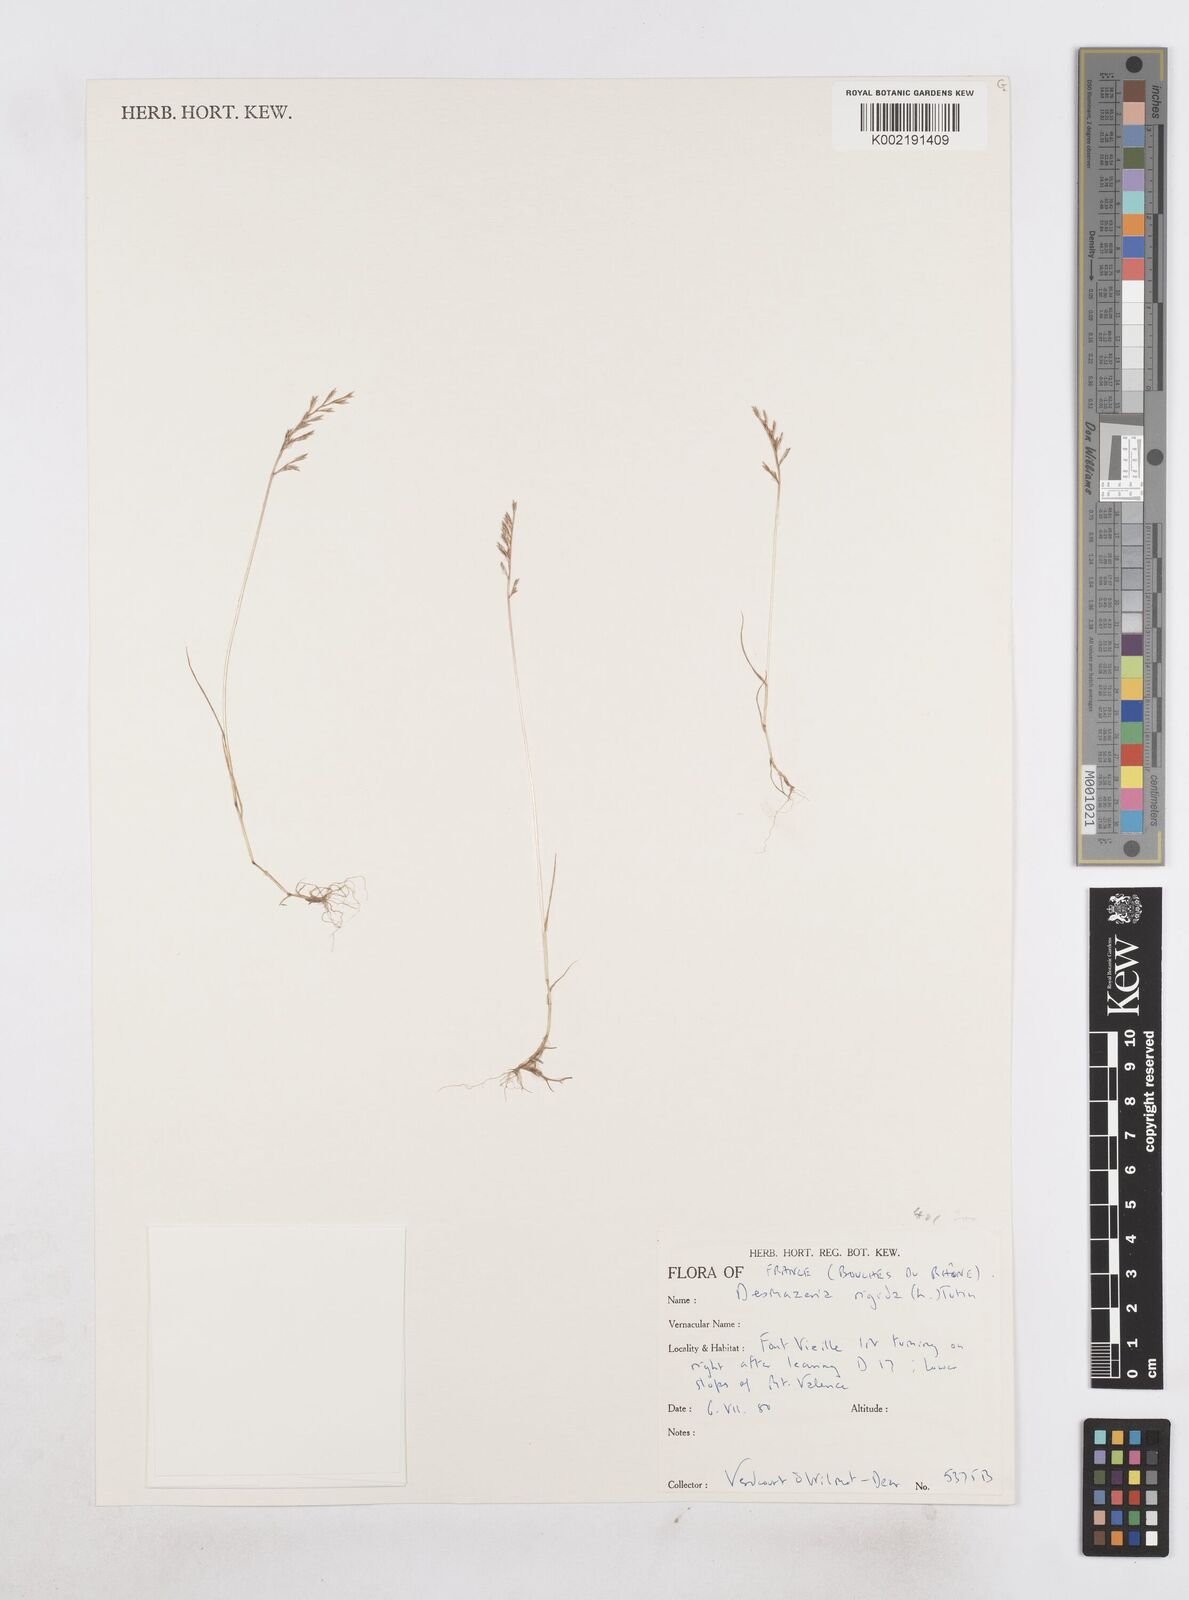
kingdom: Plantae
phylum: Tracheophyta
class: Liliopsida
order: Poales
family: Poaceae
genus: Catapodium
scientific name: Catapodium rigidum
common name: Fern-grass
